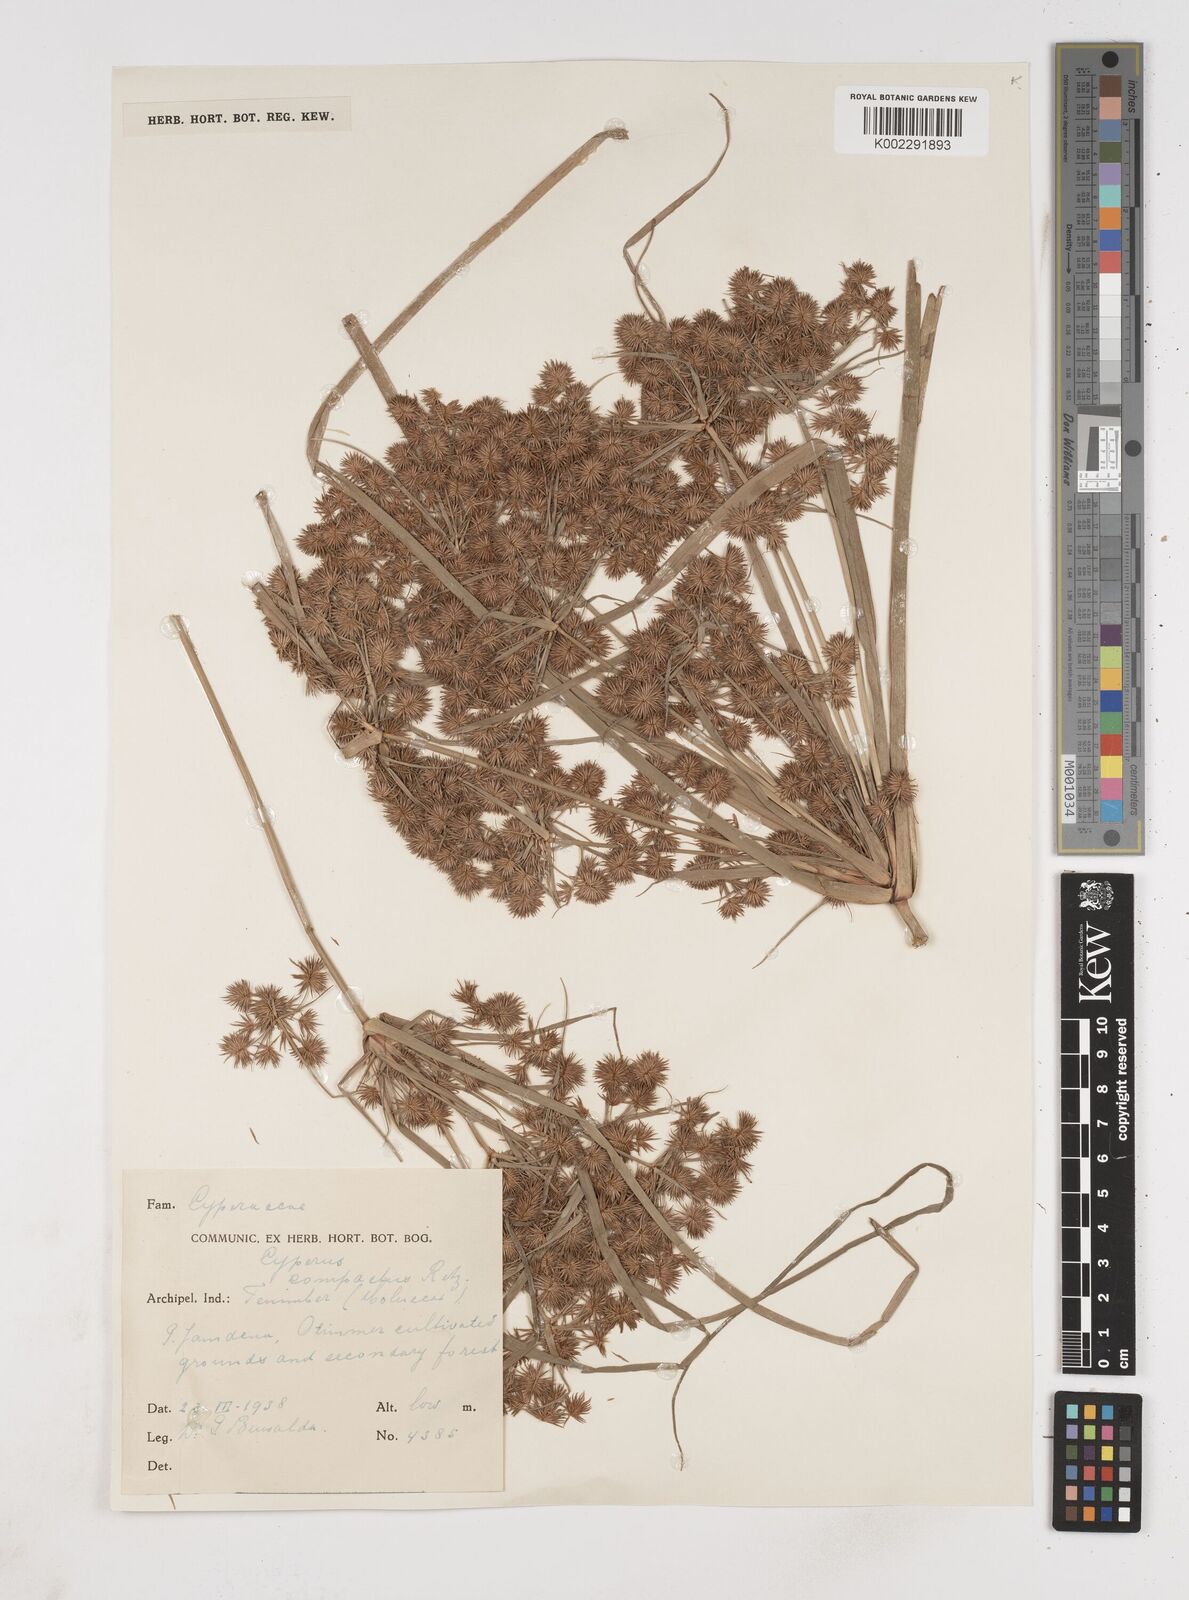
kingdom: Plantae
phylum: Tracheophyta
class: Liliopsida
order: Poales
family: Cyperaceae
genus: Cyperus
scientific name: Cyperus compactus
